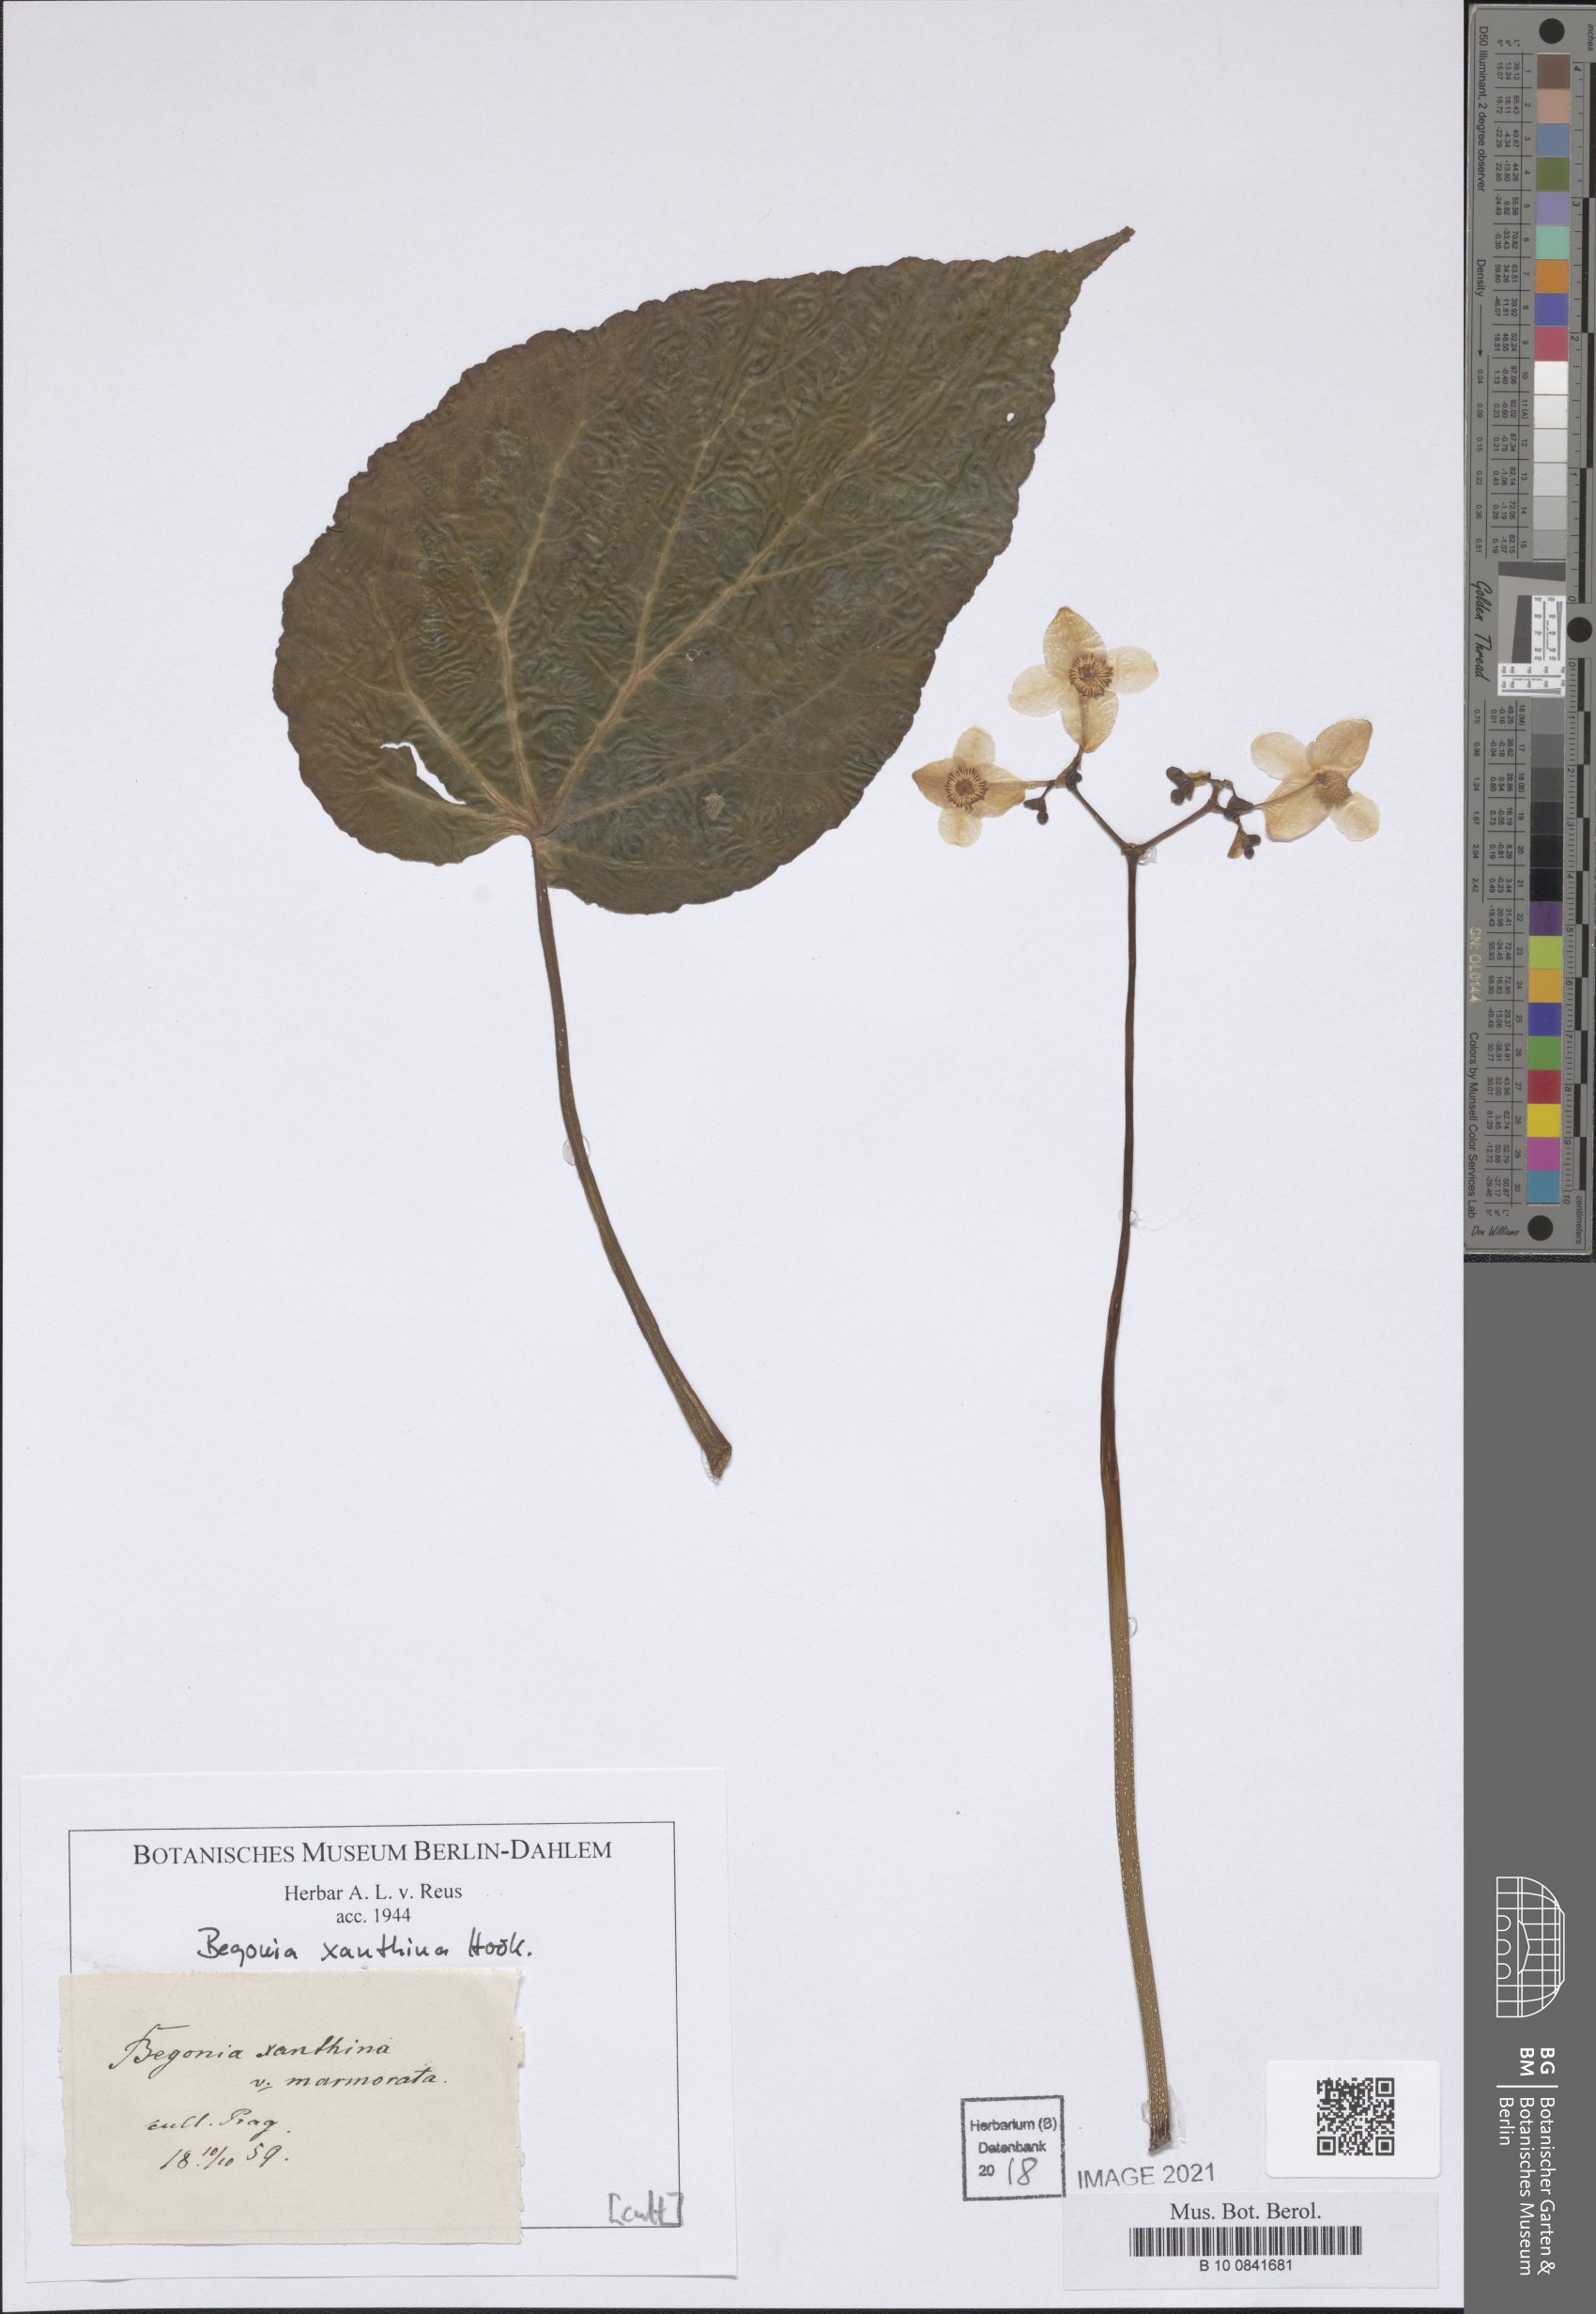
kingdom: Plantae
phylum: Tracheophyta
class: Magnoliopsida
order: Cucurbitales
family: Begoniaceae
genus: Begonia
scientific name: Begonia xanthina
